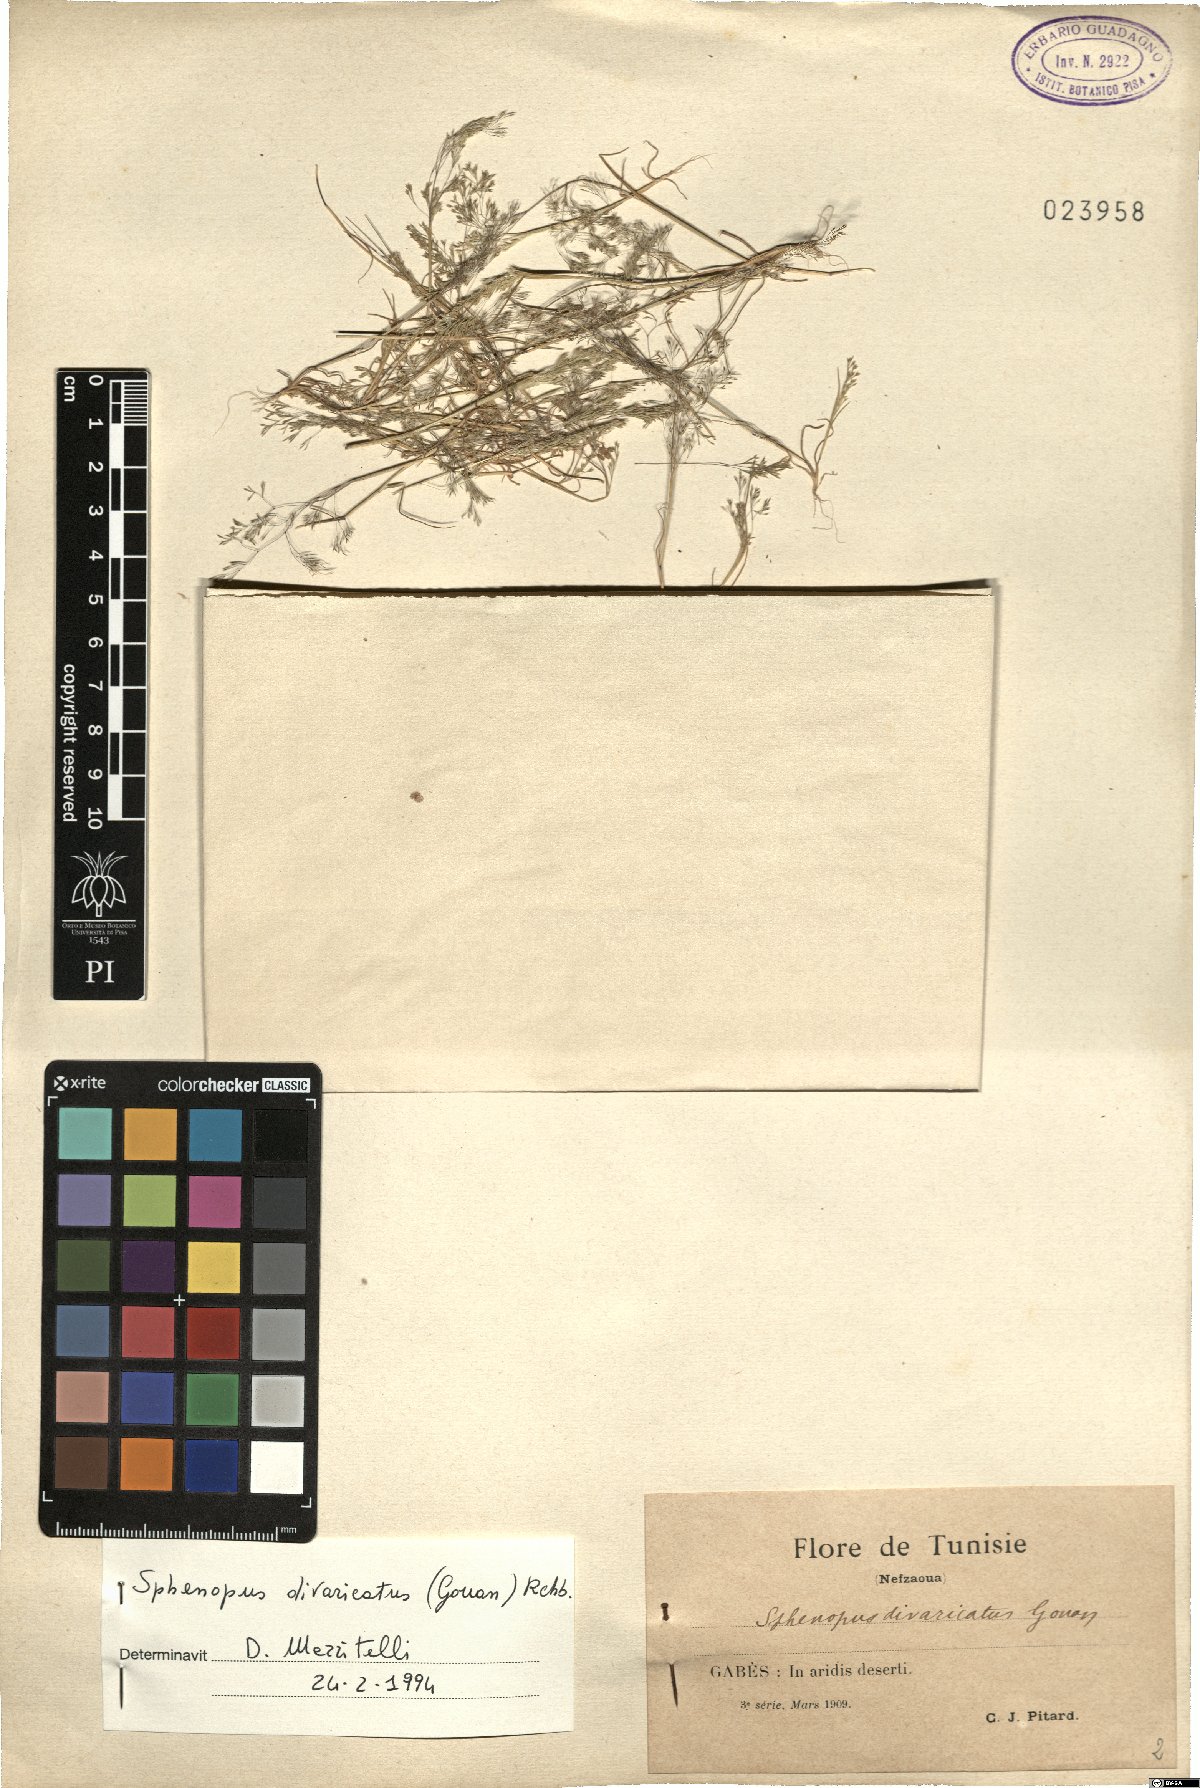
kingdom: Plantae
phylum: Tracheophyta
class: Liliopsida
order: Poales
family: Poaceae
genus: Sphenopus
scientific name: Sphenopus divaricatus
